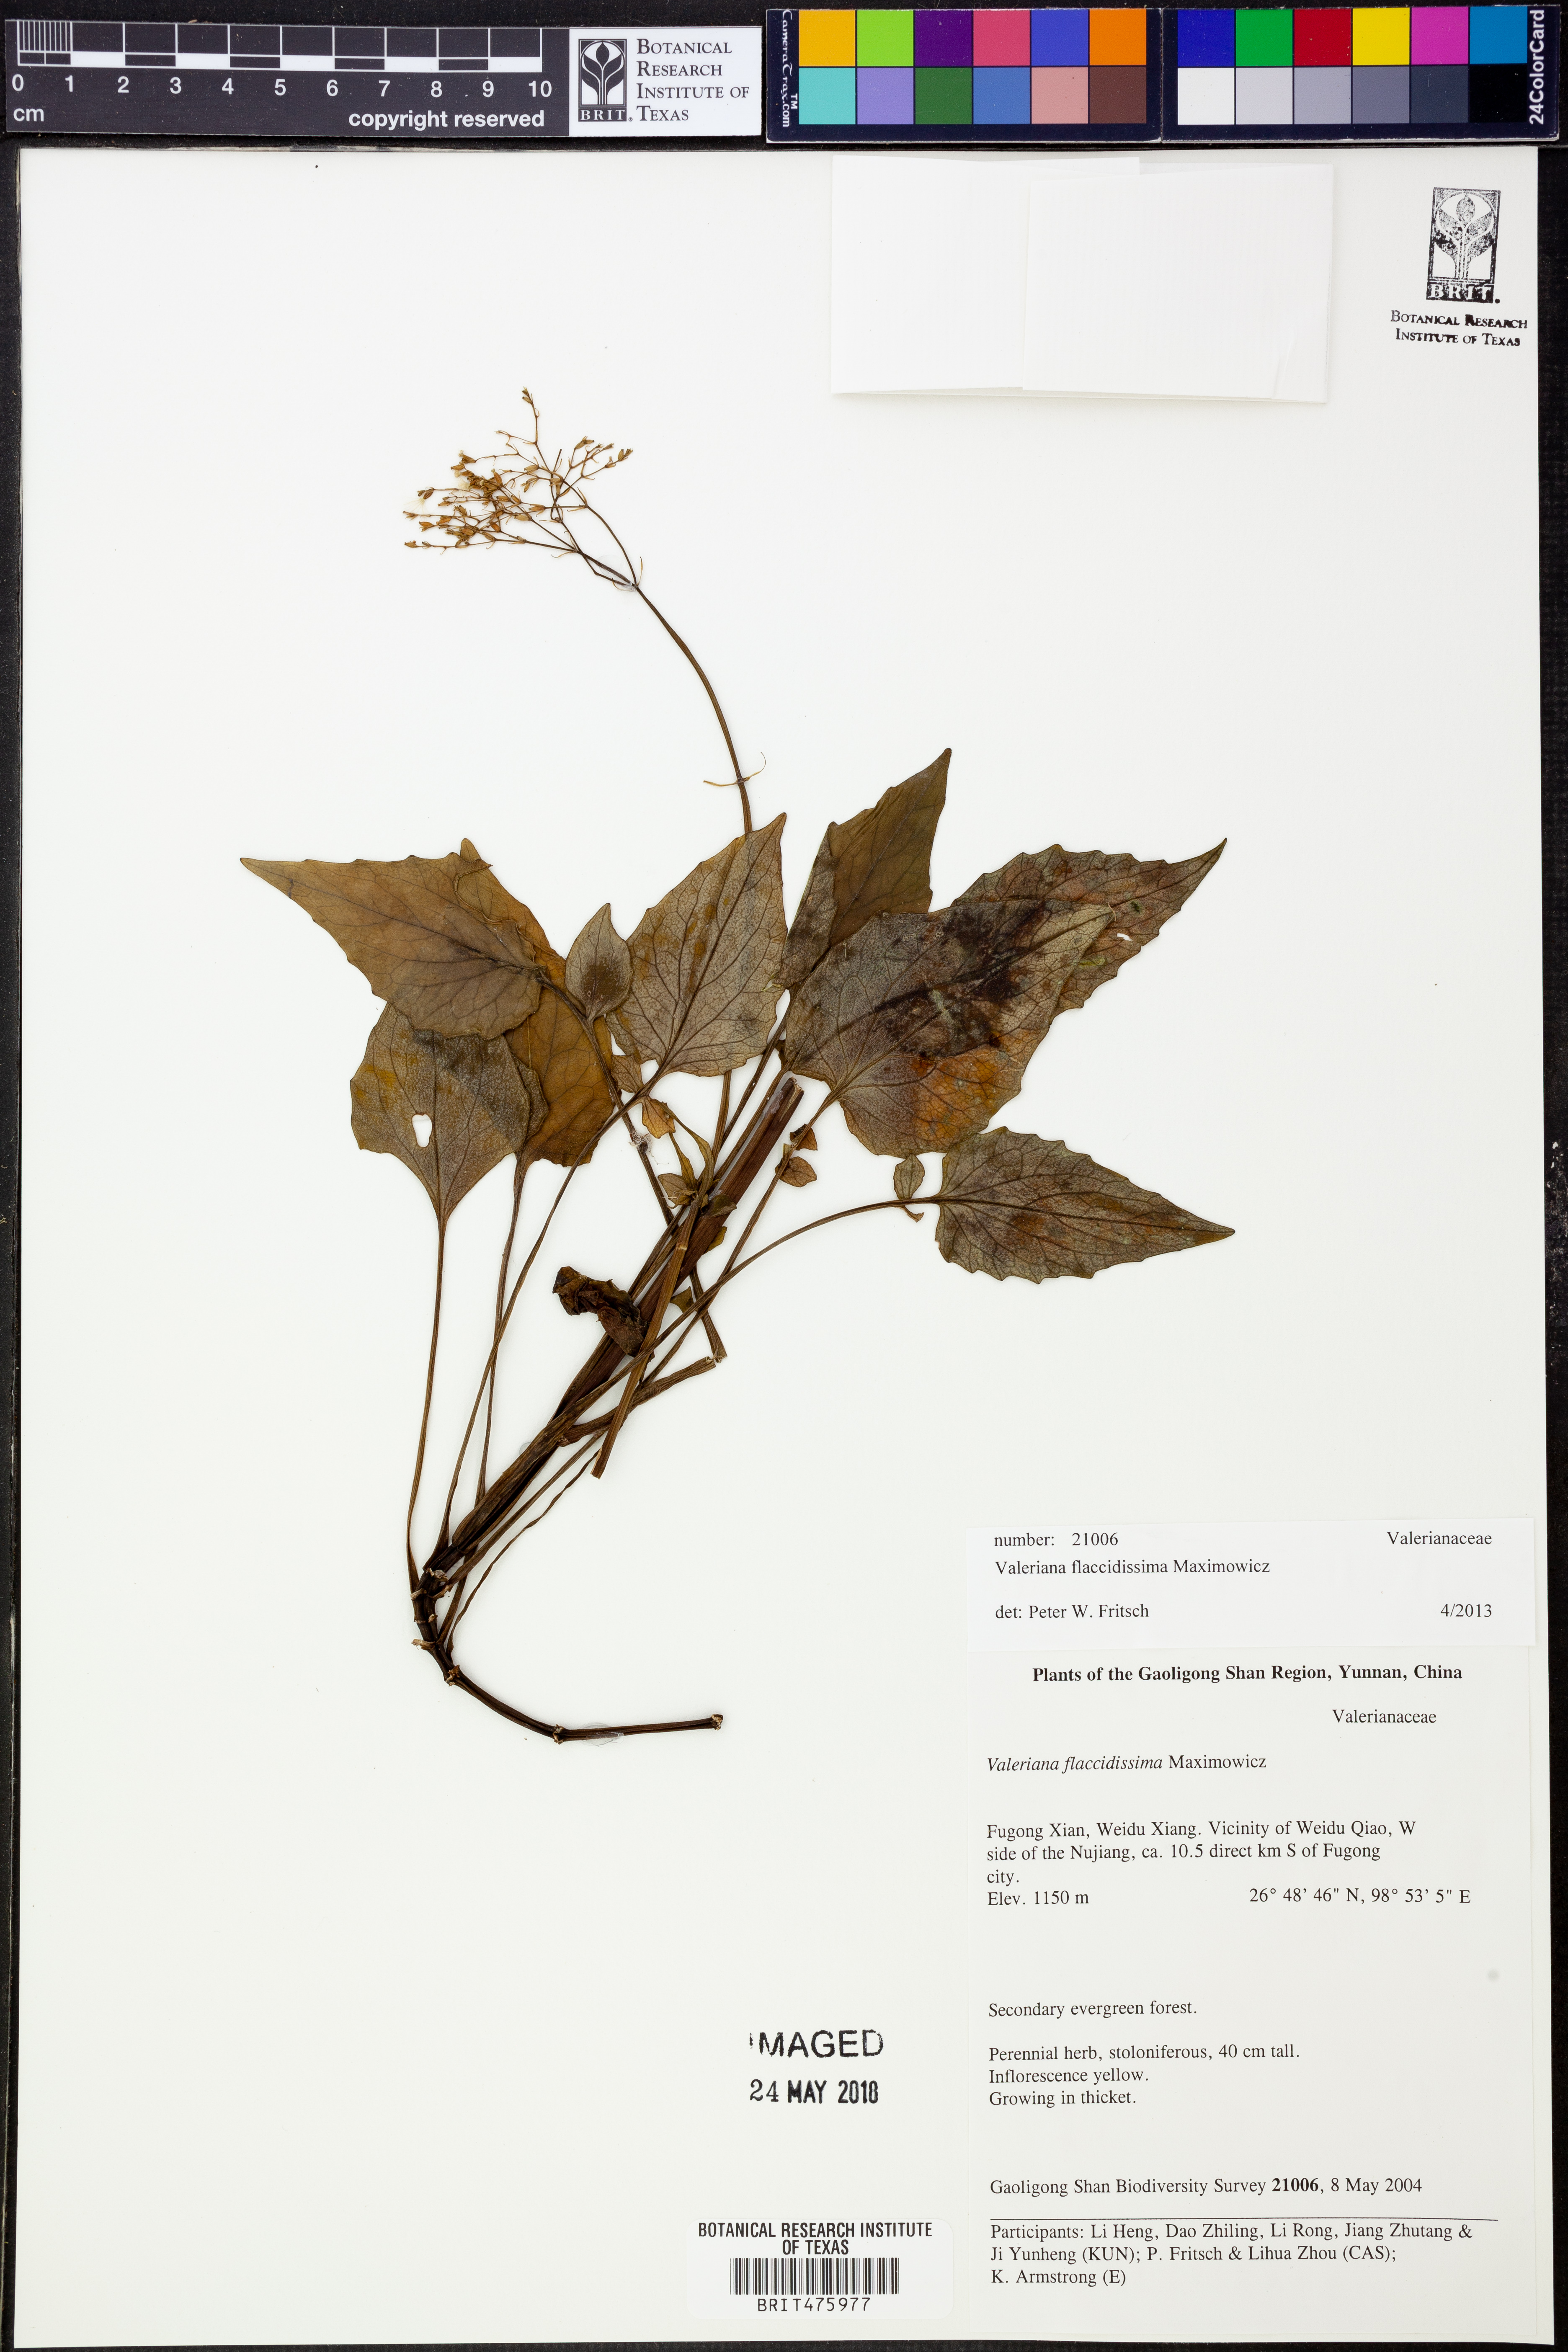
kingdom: Plantae
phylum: Tracheophyta
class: Magnoliopsida
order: Dipsacales
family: Caprifoliaceae
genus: Valeriana
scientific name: Valeriana flaccidissima
